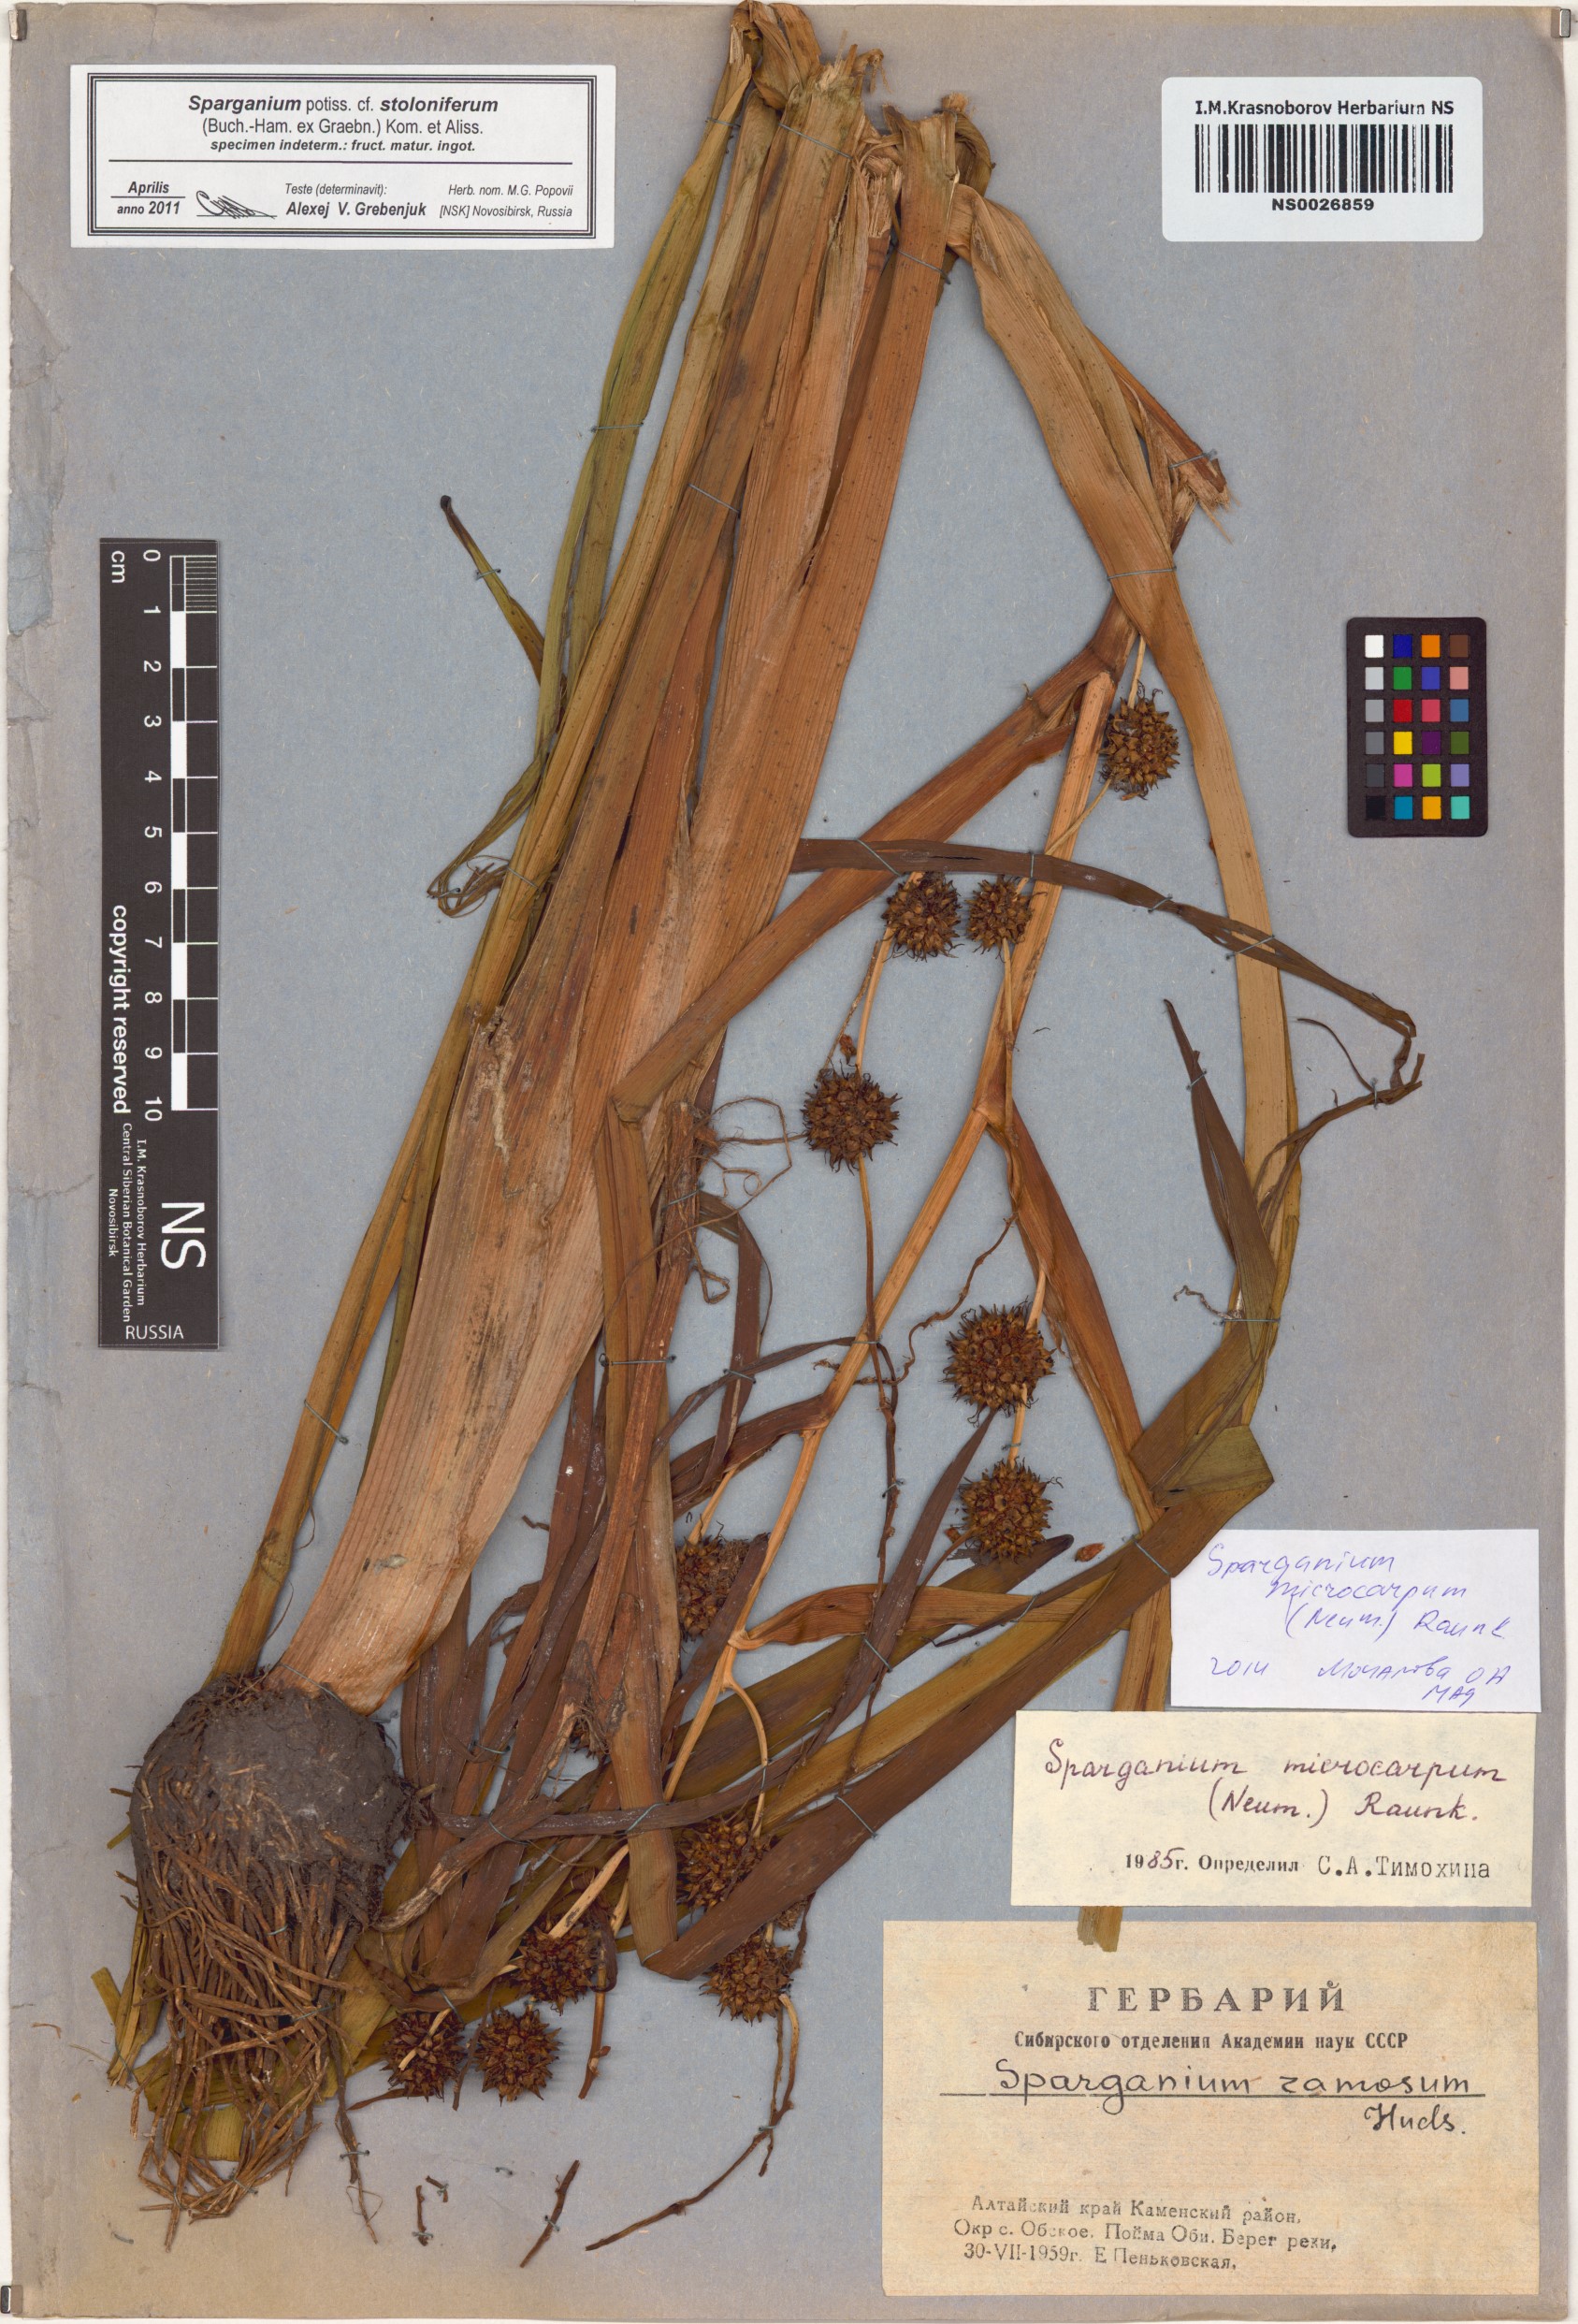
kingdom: Plantae
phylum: Tracheophyta
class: Liliopsida
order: Poales
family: Typhaceae
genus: Sparganium
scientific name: Sparganium stoloniferum
